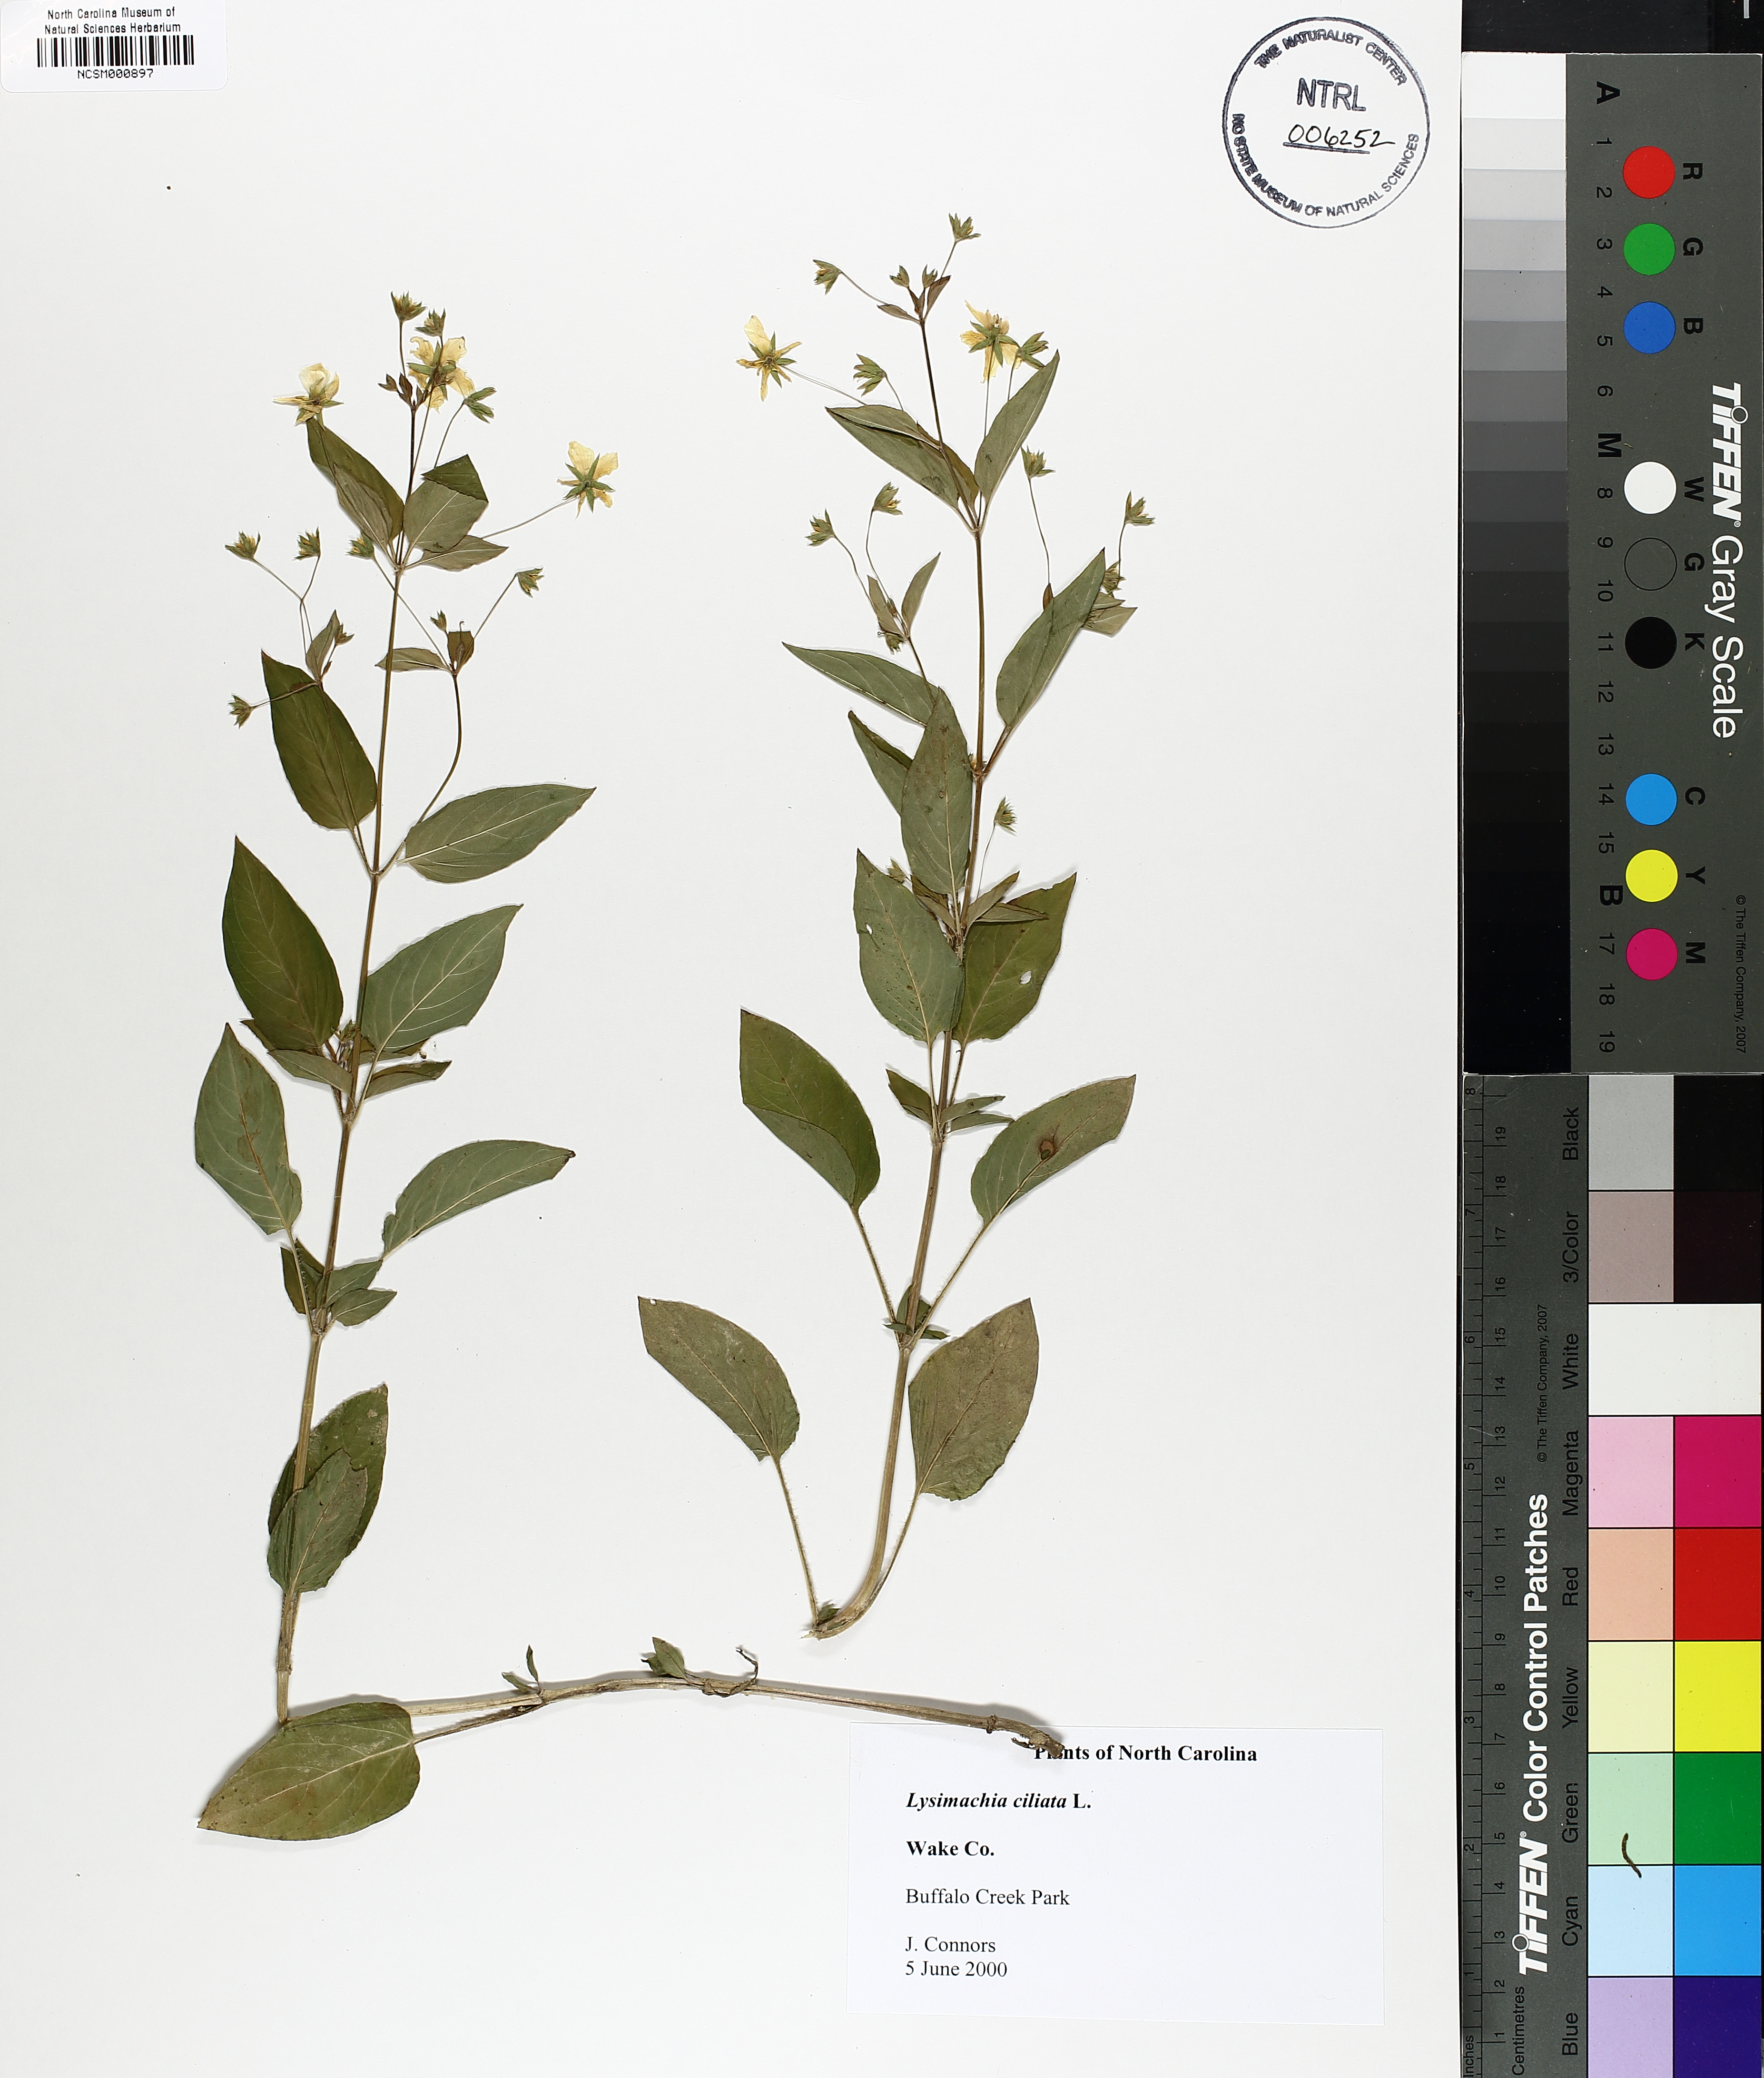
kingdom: Plantae
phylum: Tracheophyta
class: Magnoliopsida
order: Ericales
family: Primulaceae
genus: Lysimachia
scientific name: Lysimachia ciliata
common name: Fringed loosestrife
